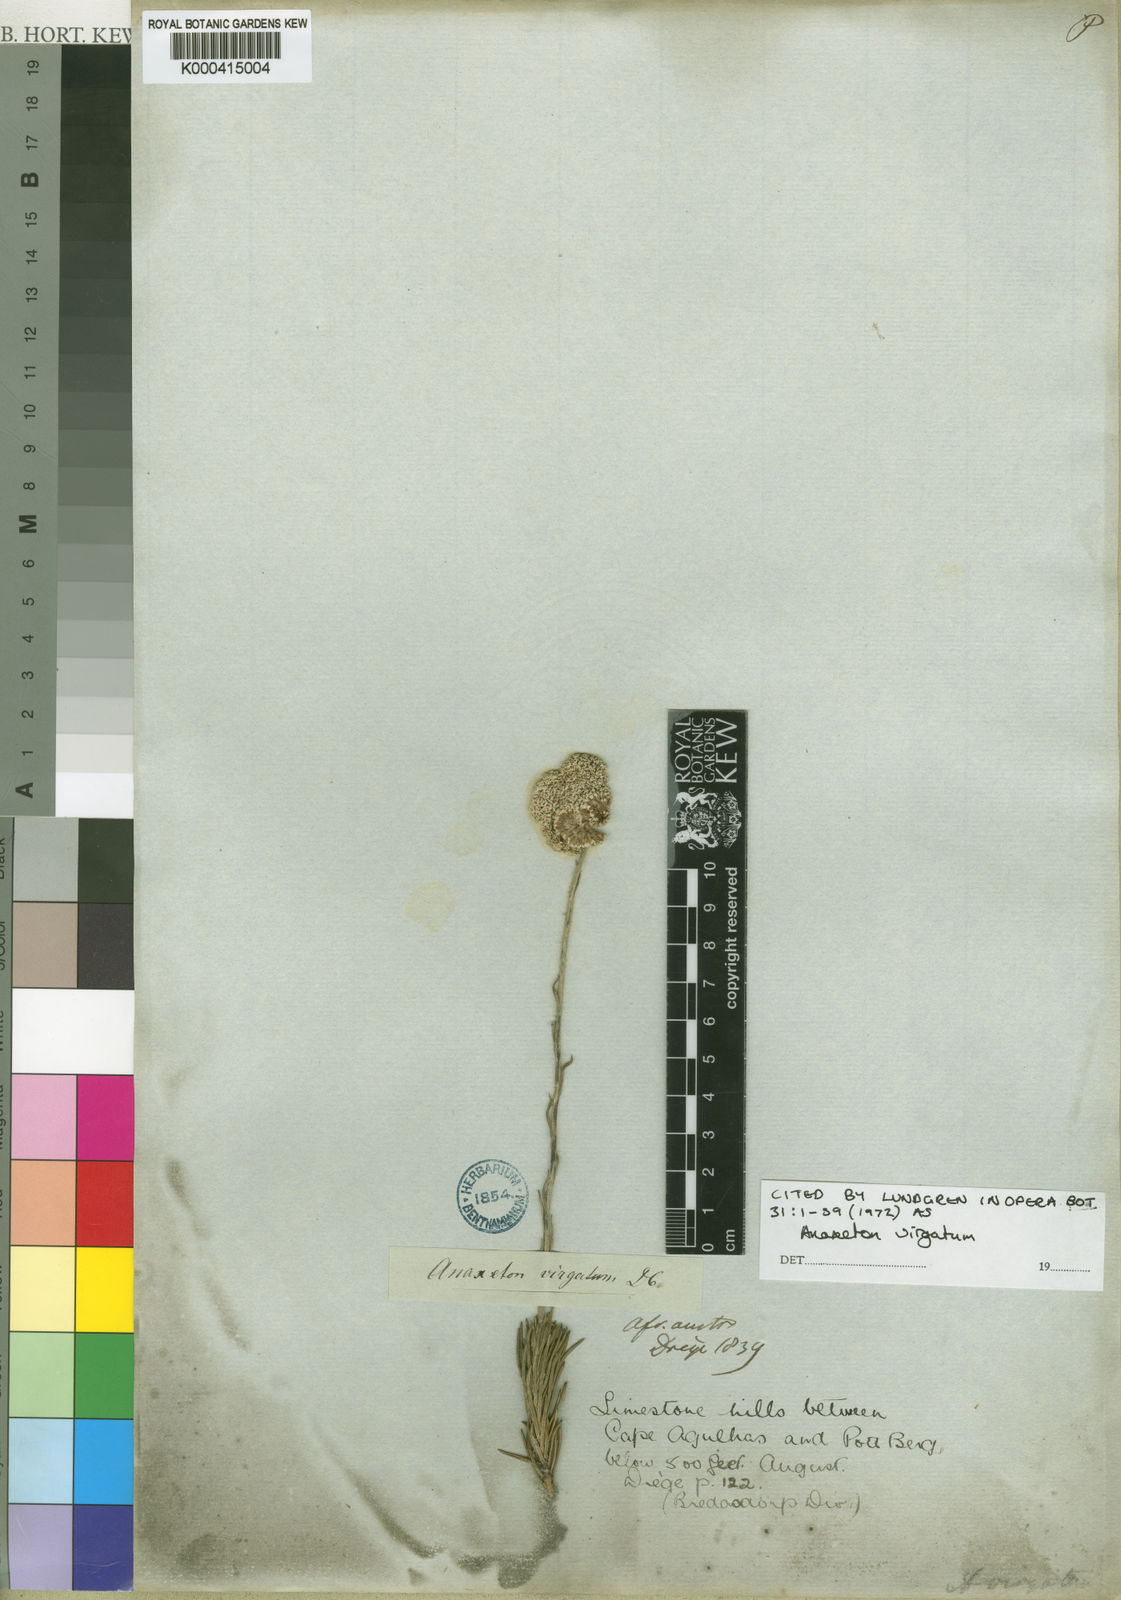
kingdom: Plantae
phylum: Tracheophyta
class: Magnoliopsida
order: Asterales
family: Asteraceae
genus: Anaxeton
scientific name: Anaxeton virgatum
